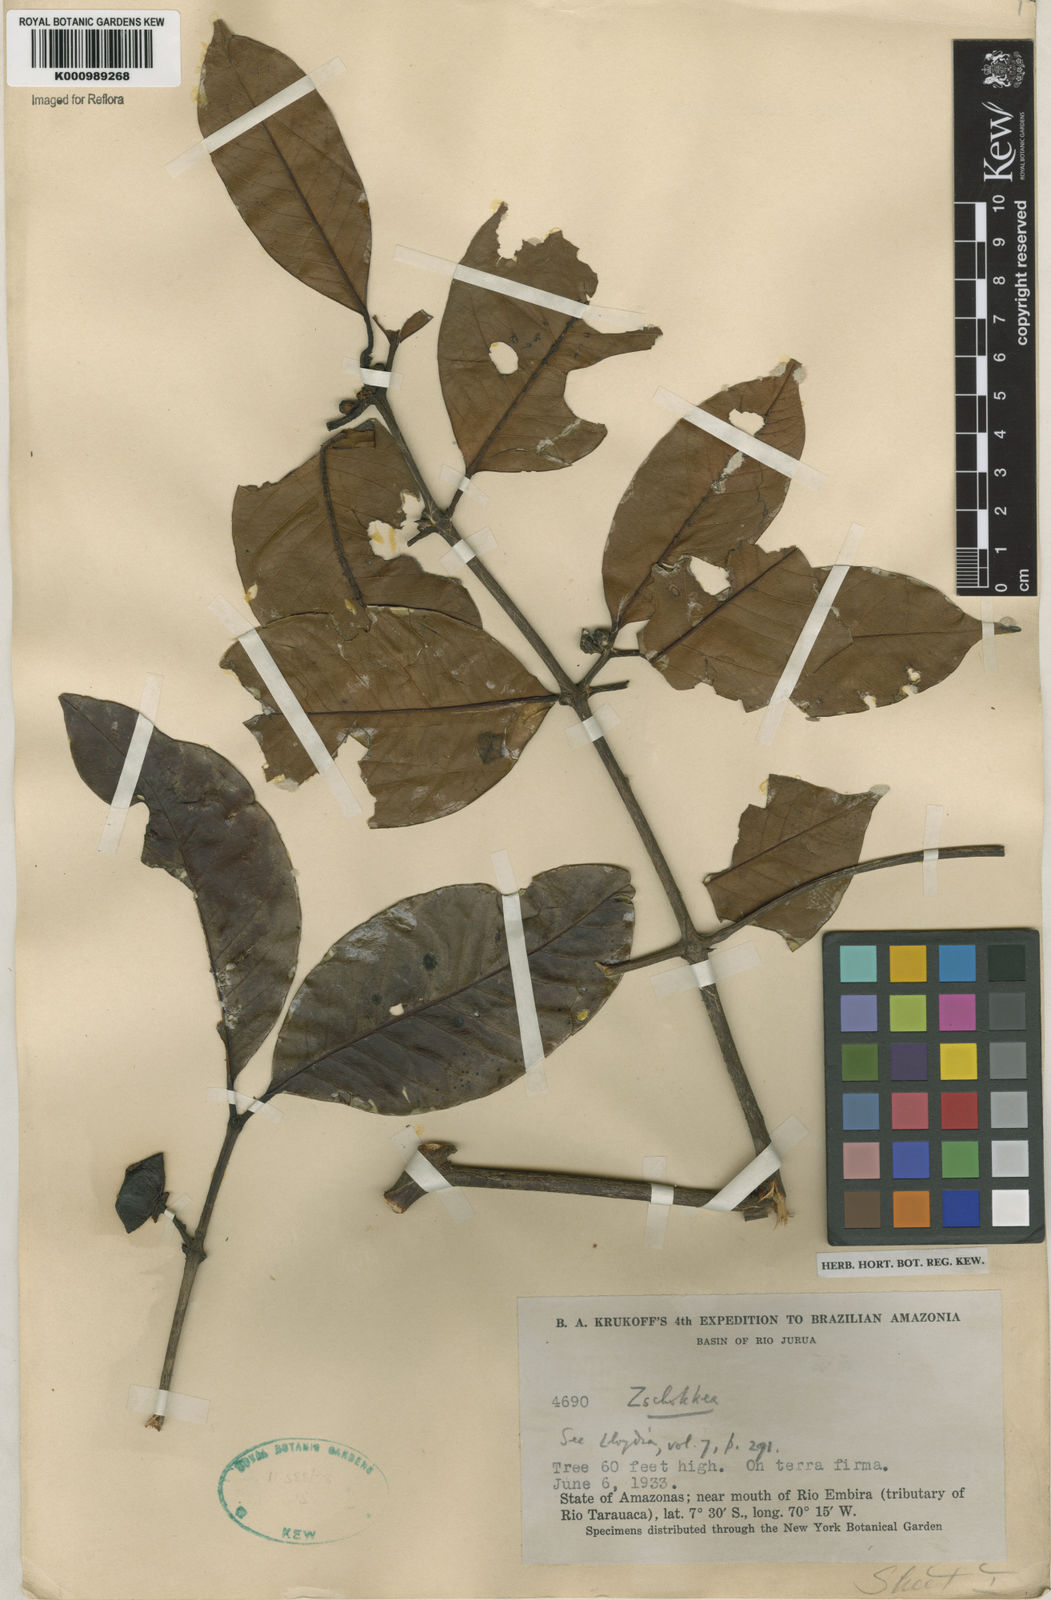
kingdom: Plantae
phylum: Tracheophyta
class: Magnoliopsida
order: Gentianales
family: Apocynaceae
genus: Lacmellea
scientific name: Lacmellea
